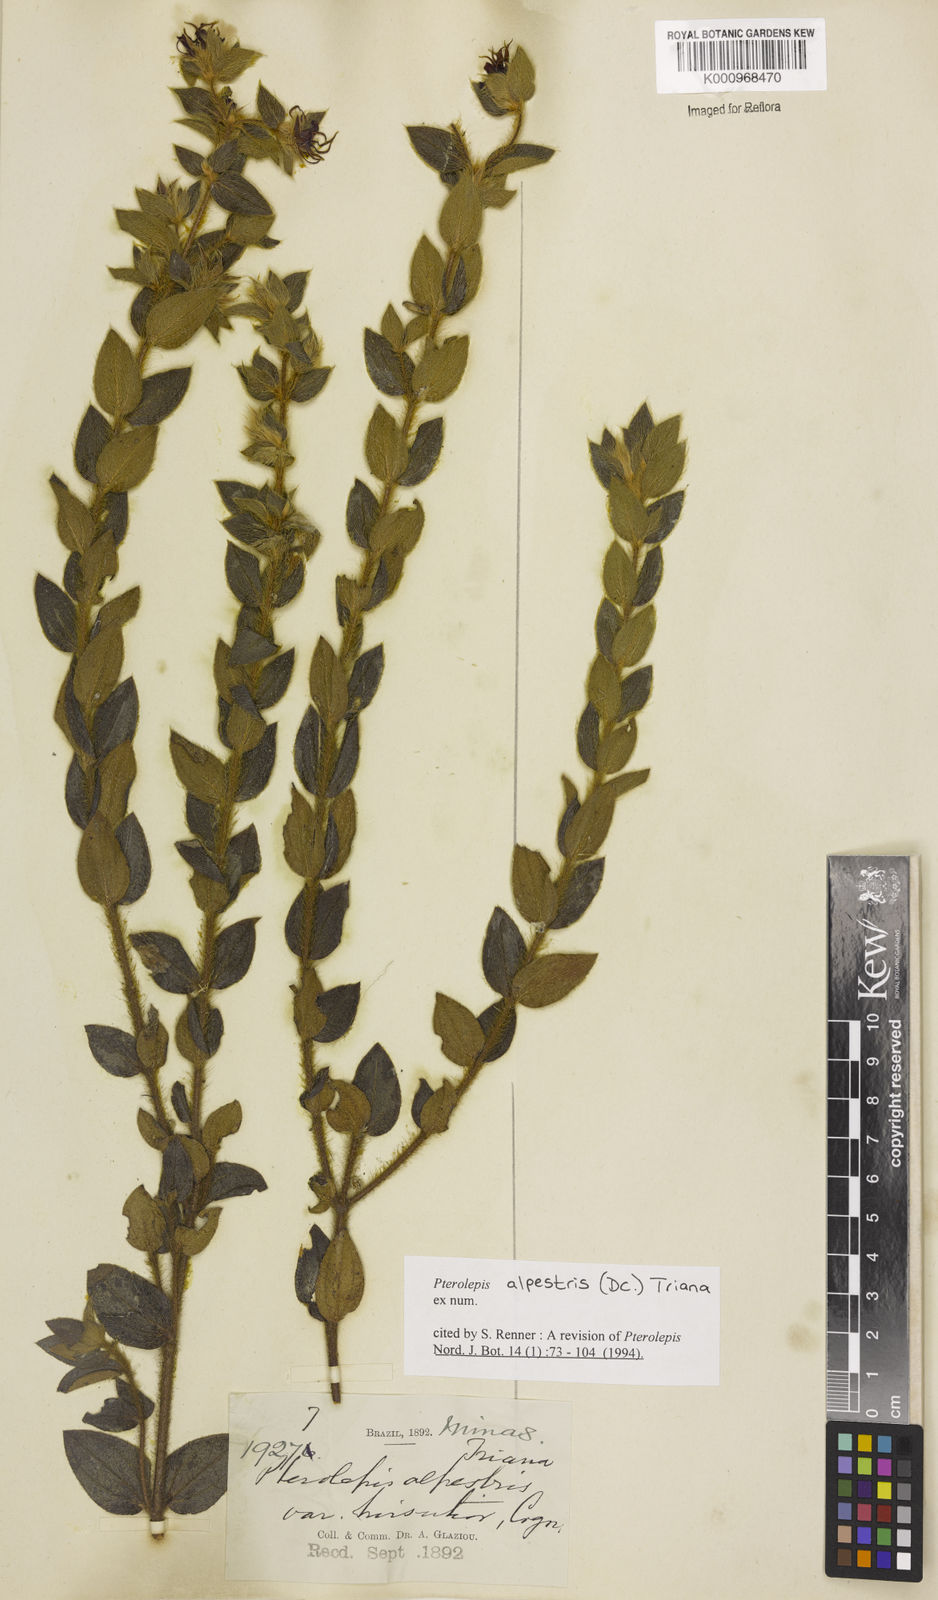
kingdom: Plantae
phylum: Tracheophyta
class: Magnoliopsida
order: Myrtales
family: Melastomataceae
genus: Pterolepis
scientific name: Pterolepis alpestris
